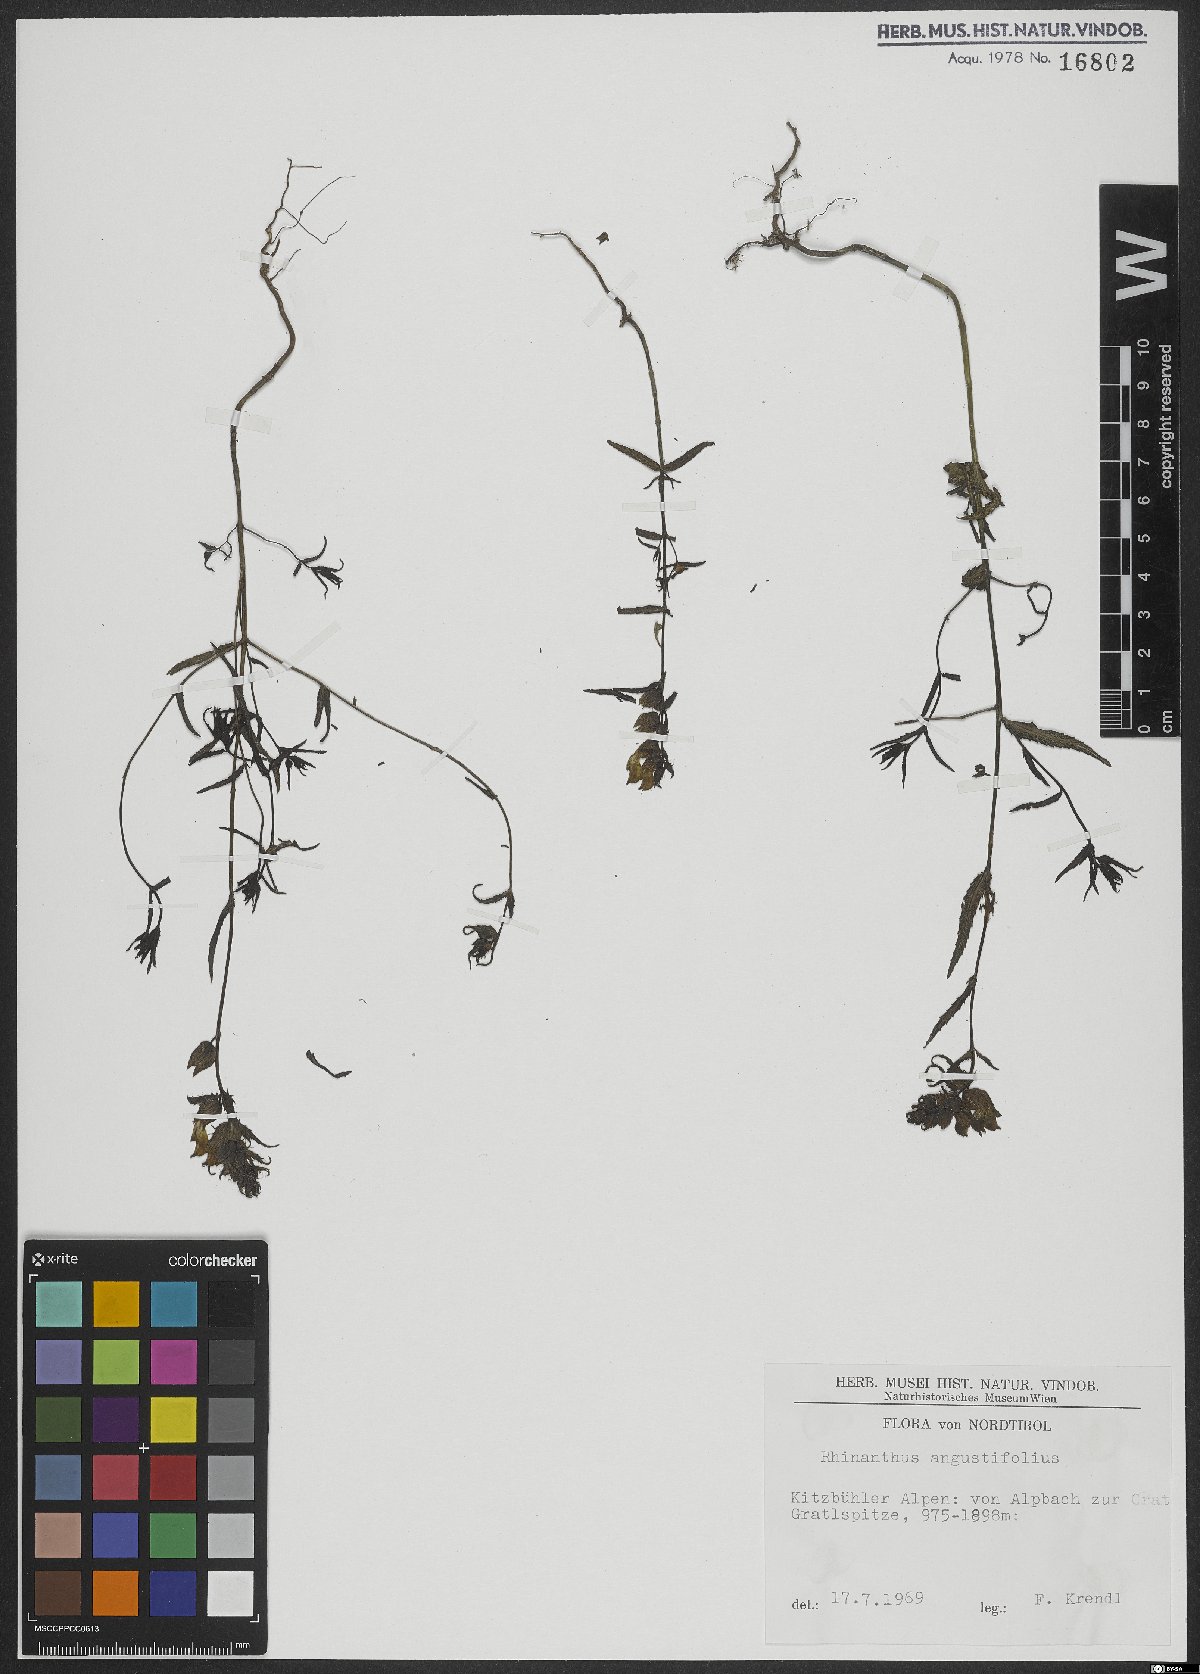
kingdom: Plantae
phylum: Tracheophyta
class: Magnoliopsida
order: Lamiales
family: Orobanchaceae
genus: Rhinanthus
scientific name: Rhinanthus glacialis
